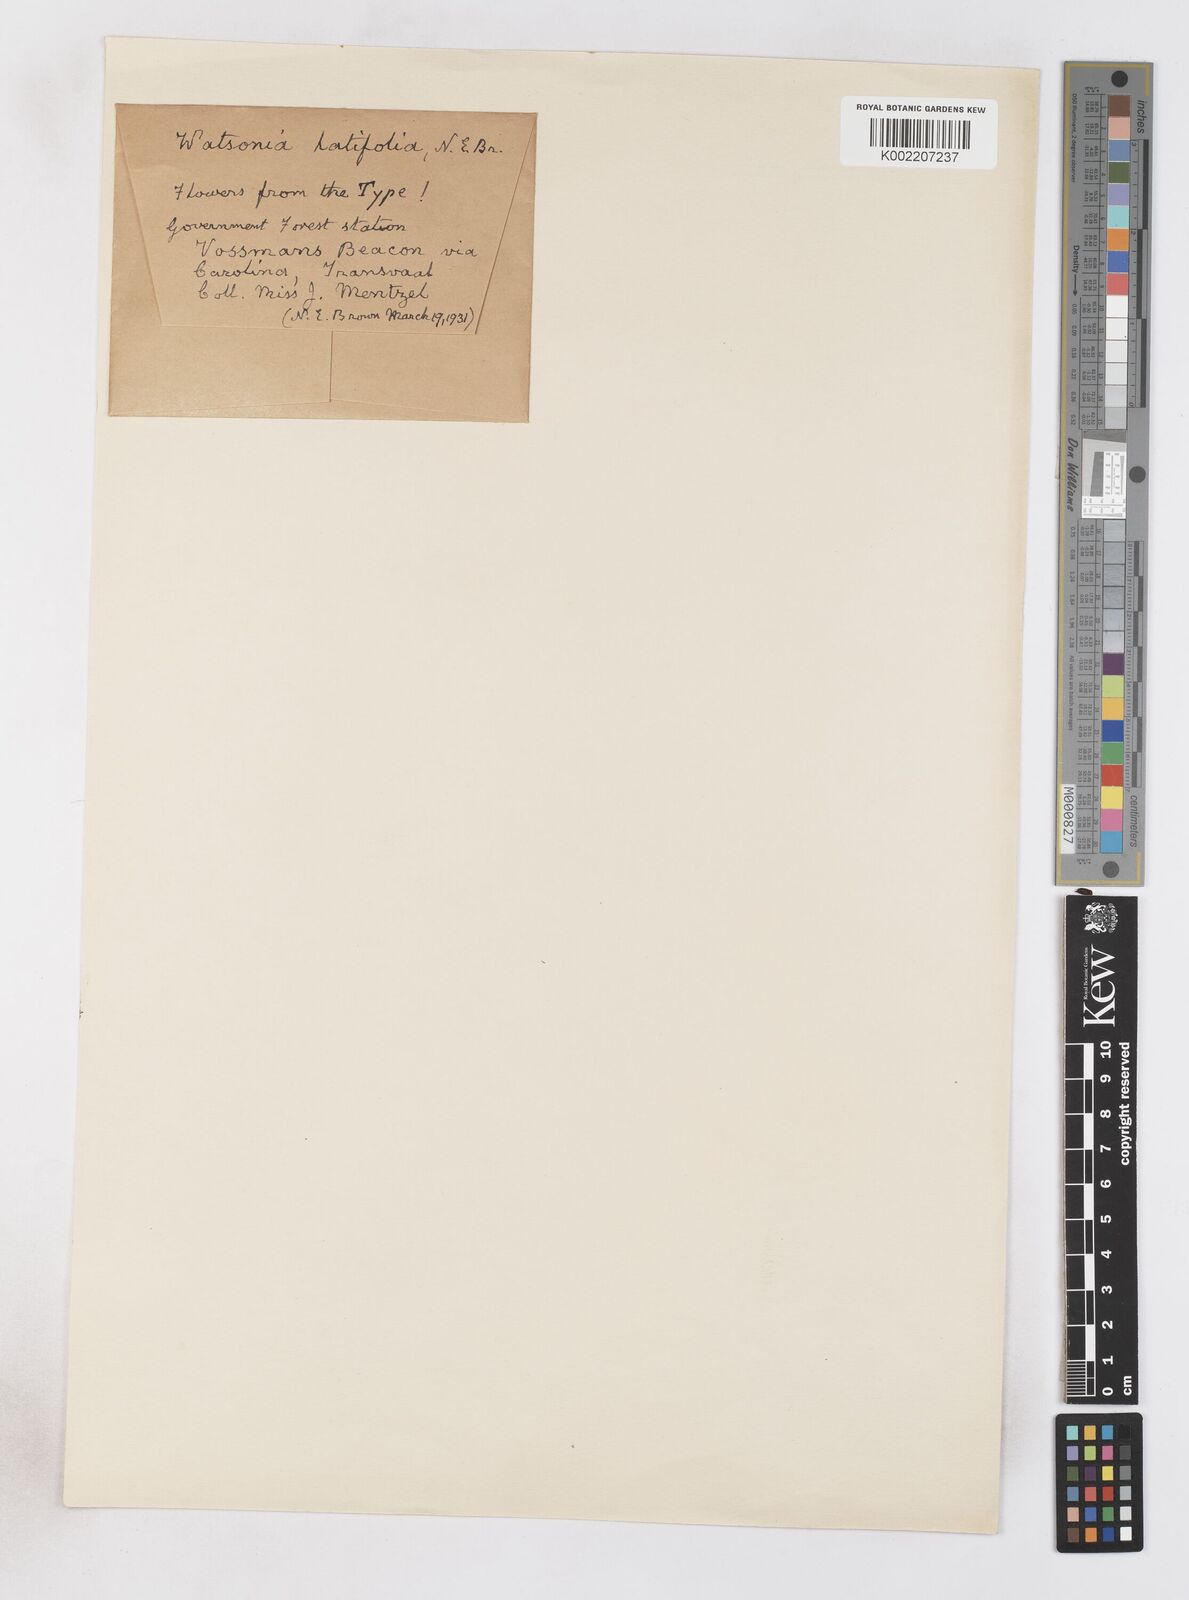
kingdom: Plantae
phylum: Tracheophyta
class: Liliopsida
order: Asparagales
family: Iridaceae
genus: Watsonia
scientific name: Watsonia latifolia
